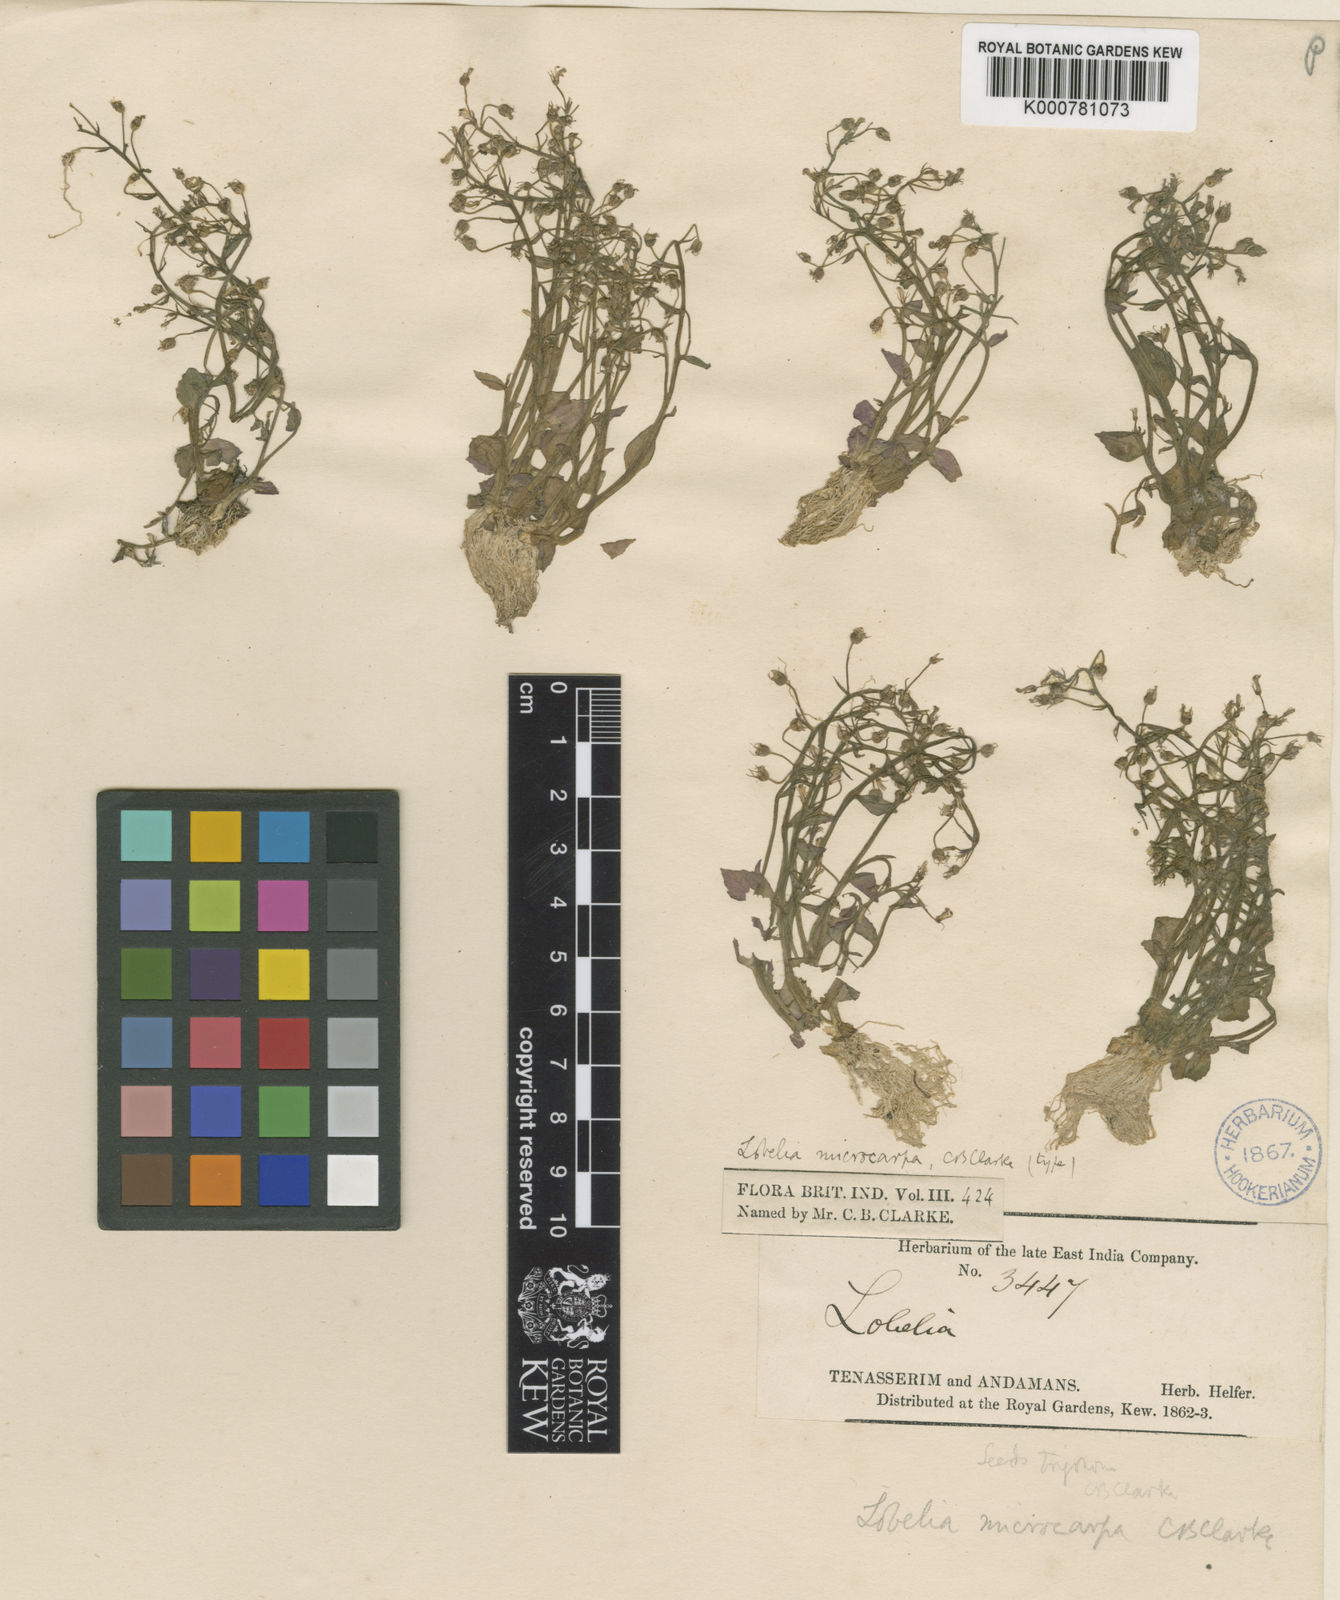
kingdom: Plantae
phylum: Tracheophyta
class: Magnoliopsida
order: Asterales
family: Campanulaceae
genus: Lobelia
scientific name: Lobelia alsinoides
